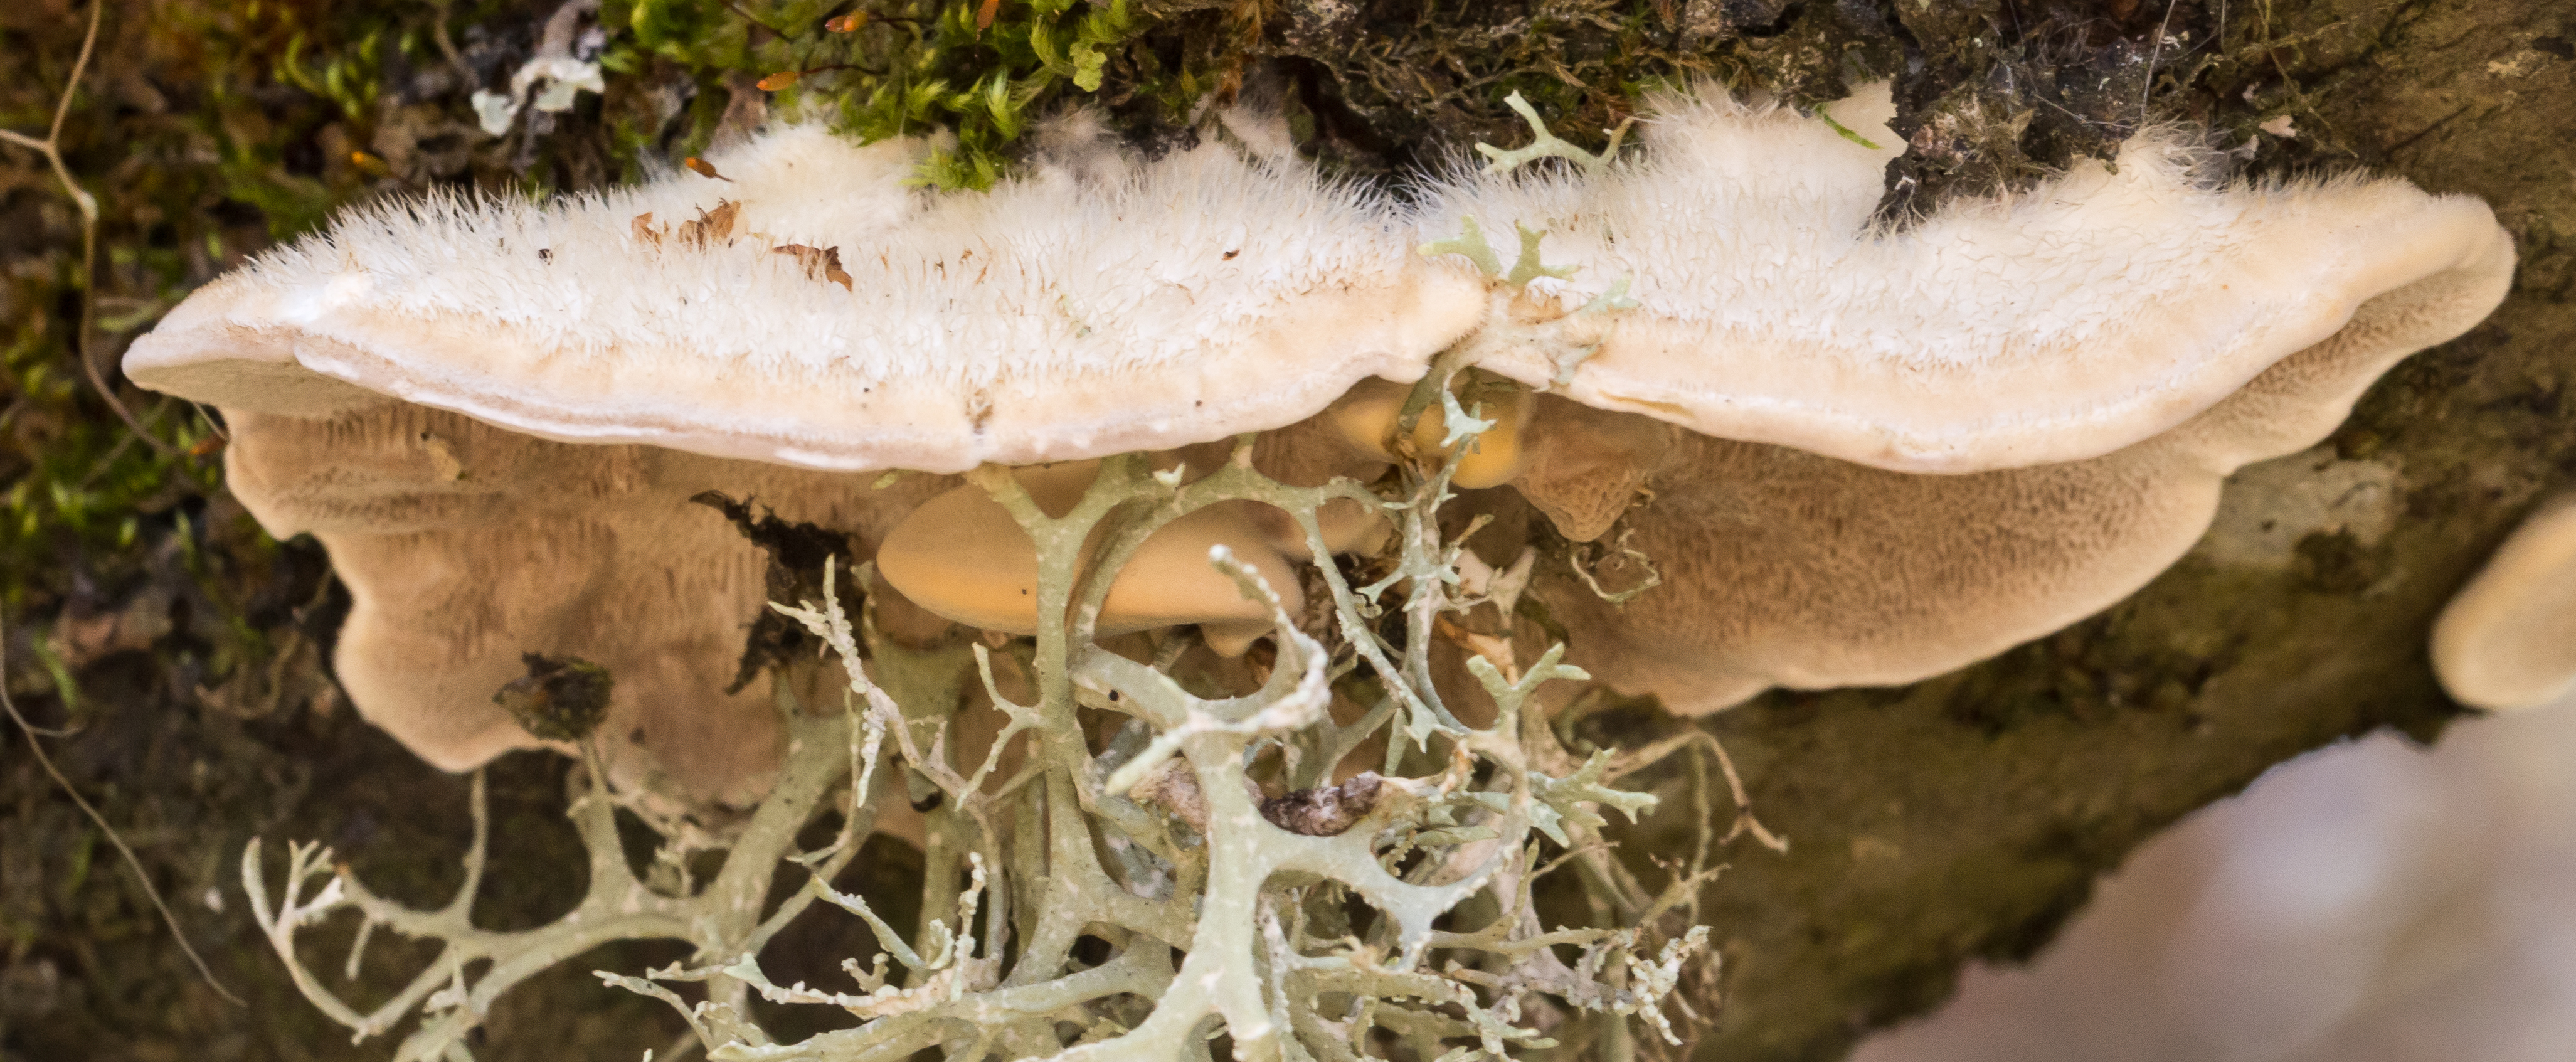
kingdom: Fungi
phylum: Basidiomycota
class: Agaricomycetes
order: Polyporales
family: Polyporaceae
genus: Trametes
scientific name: Trametes hirsuta
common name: Hairy bracket
